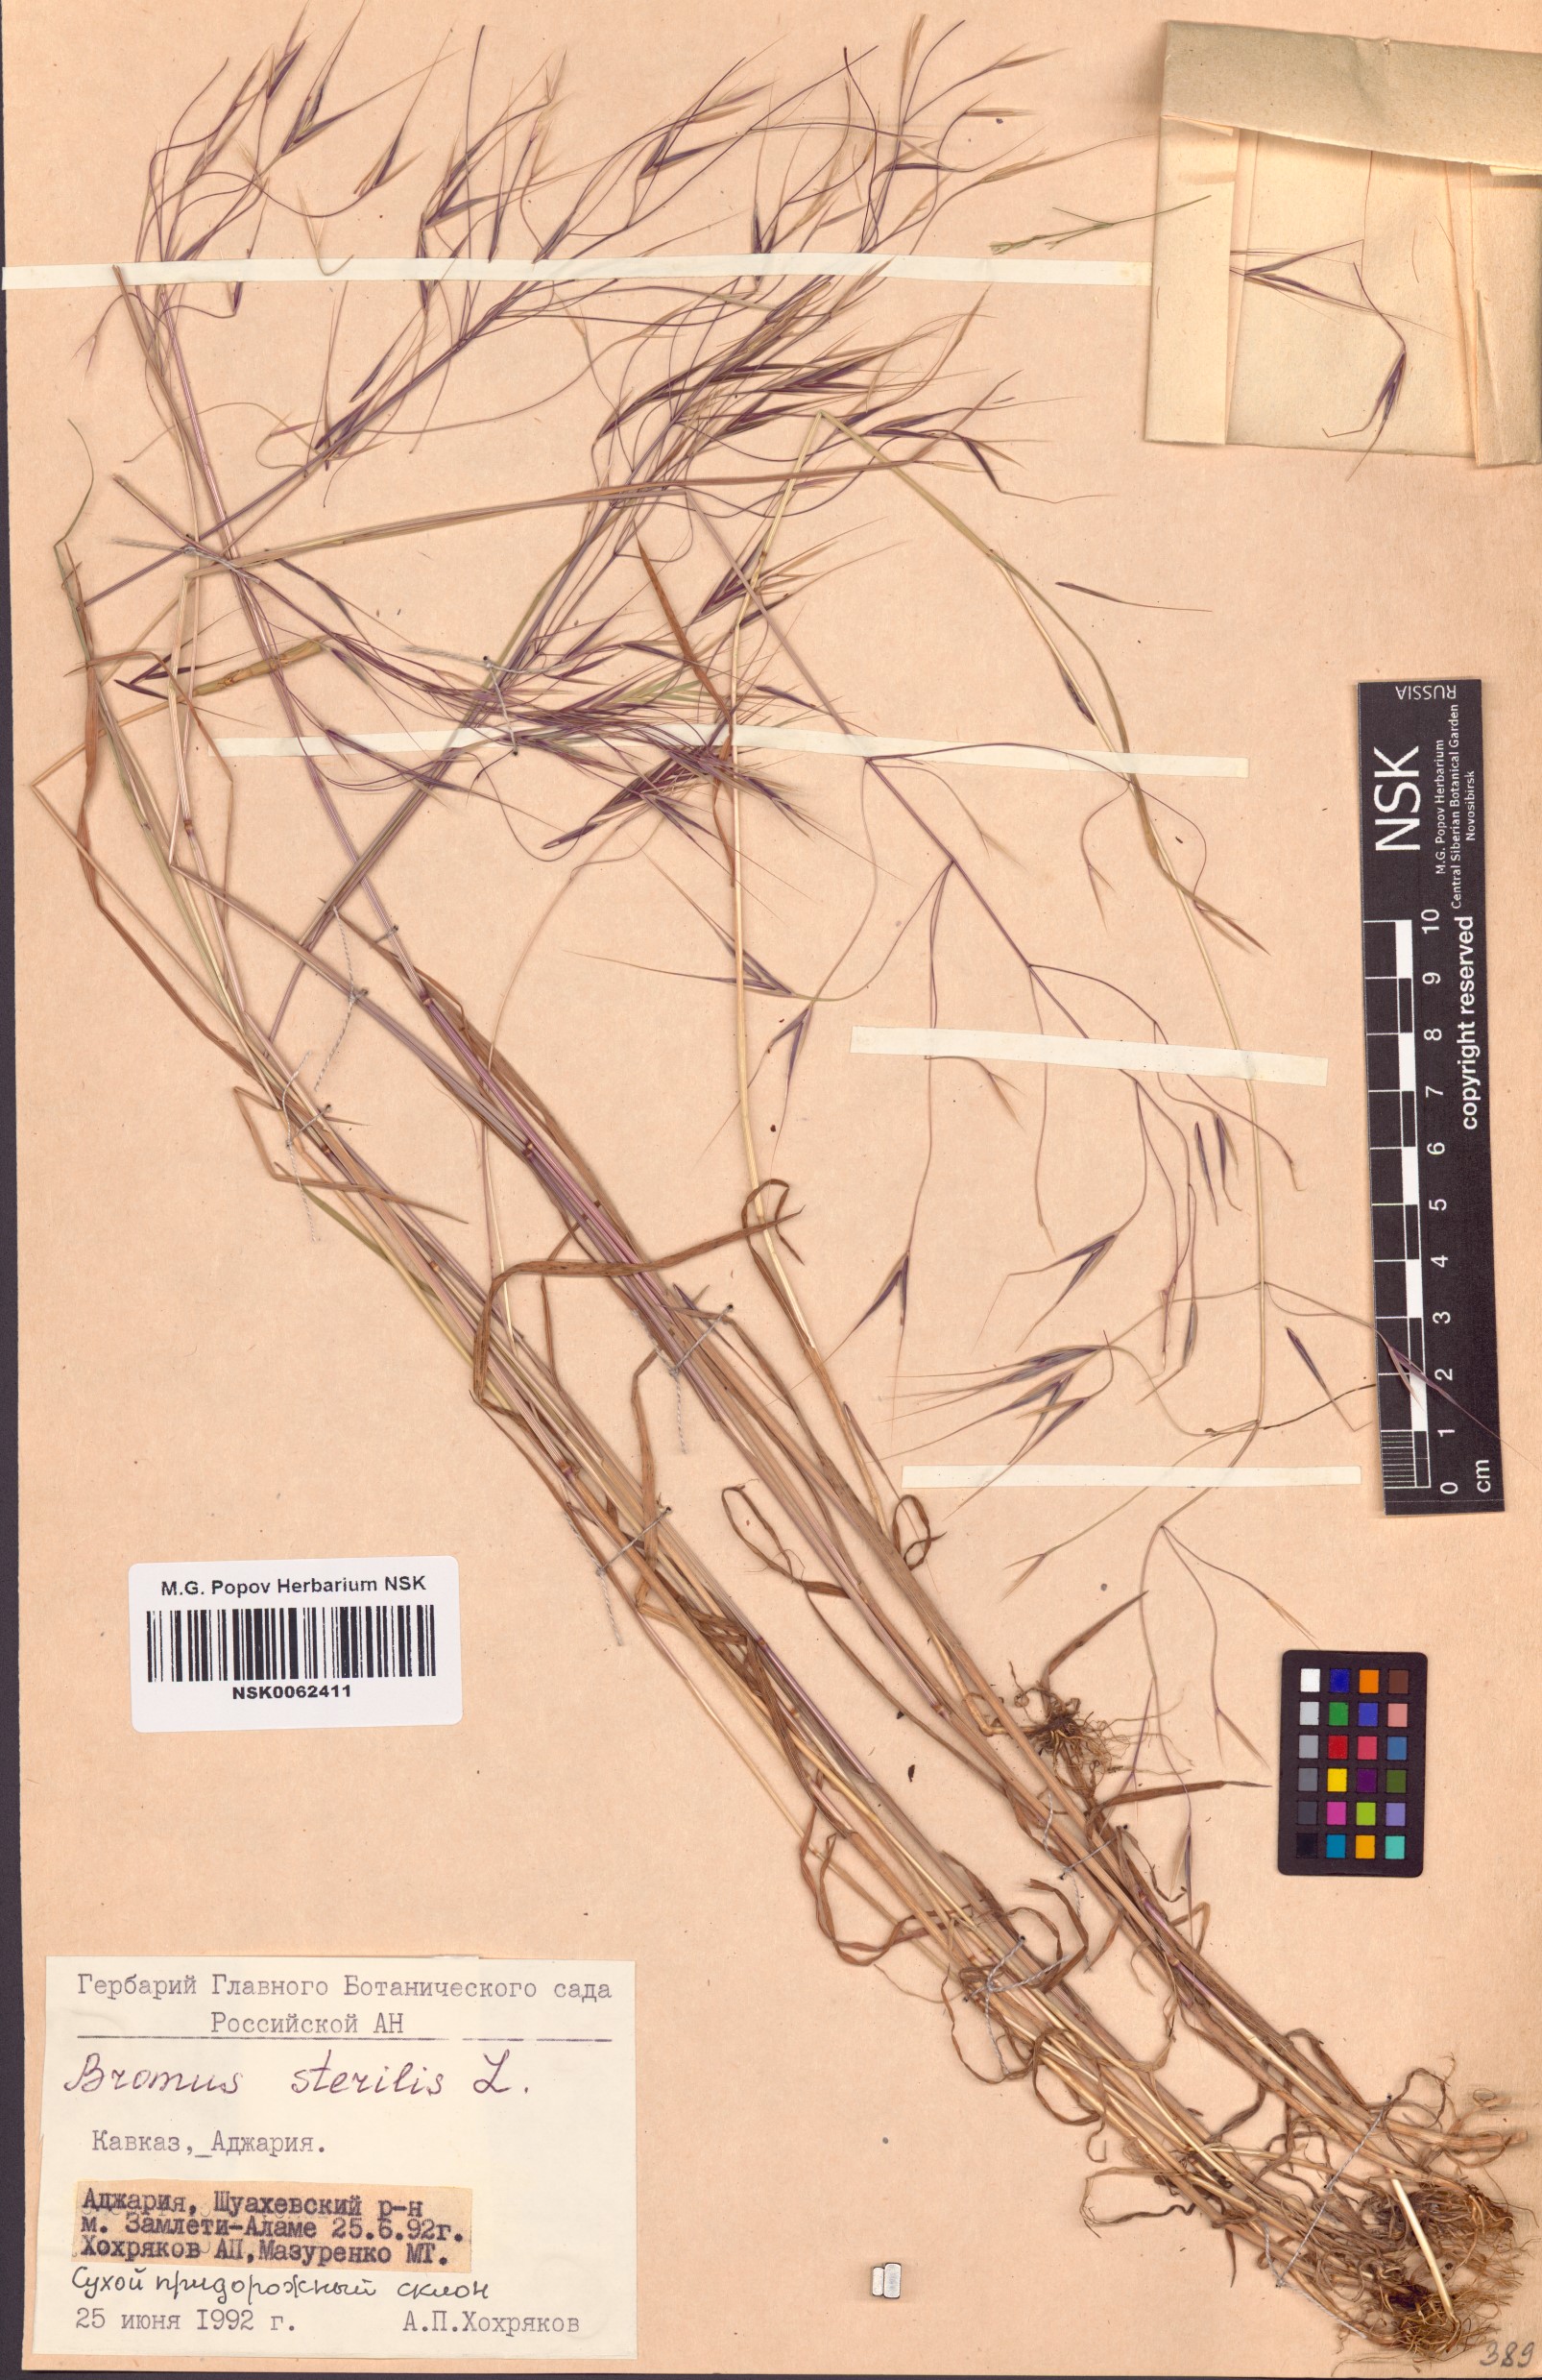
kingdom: Plantae
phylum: Tracheophyta
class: Liliopsida
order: Poales
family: Poaceae
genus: Bromus
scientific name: Bromus sterilis
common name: Poverty brome
